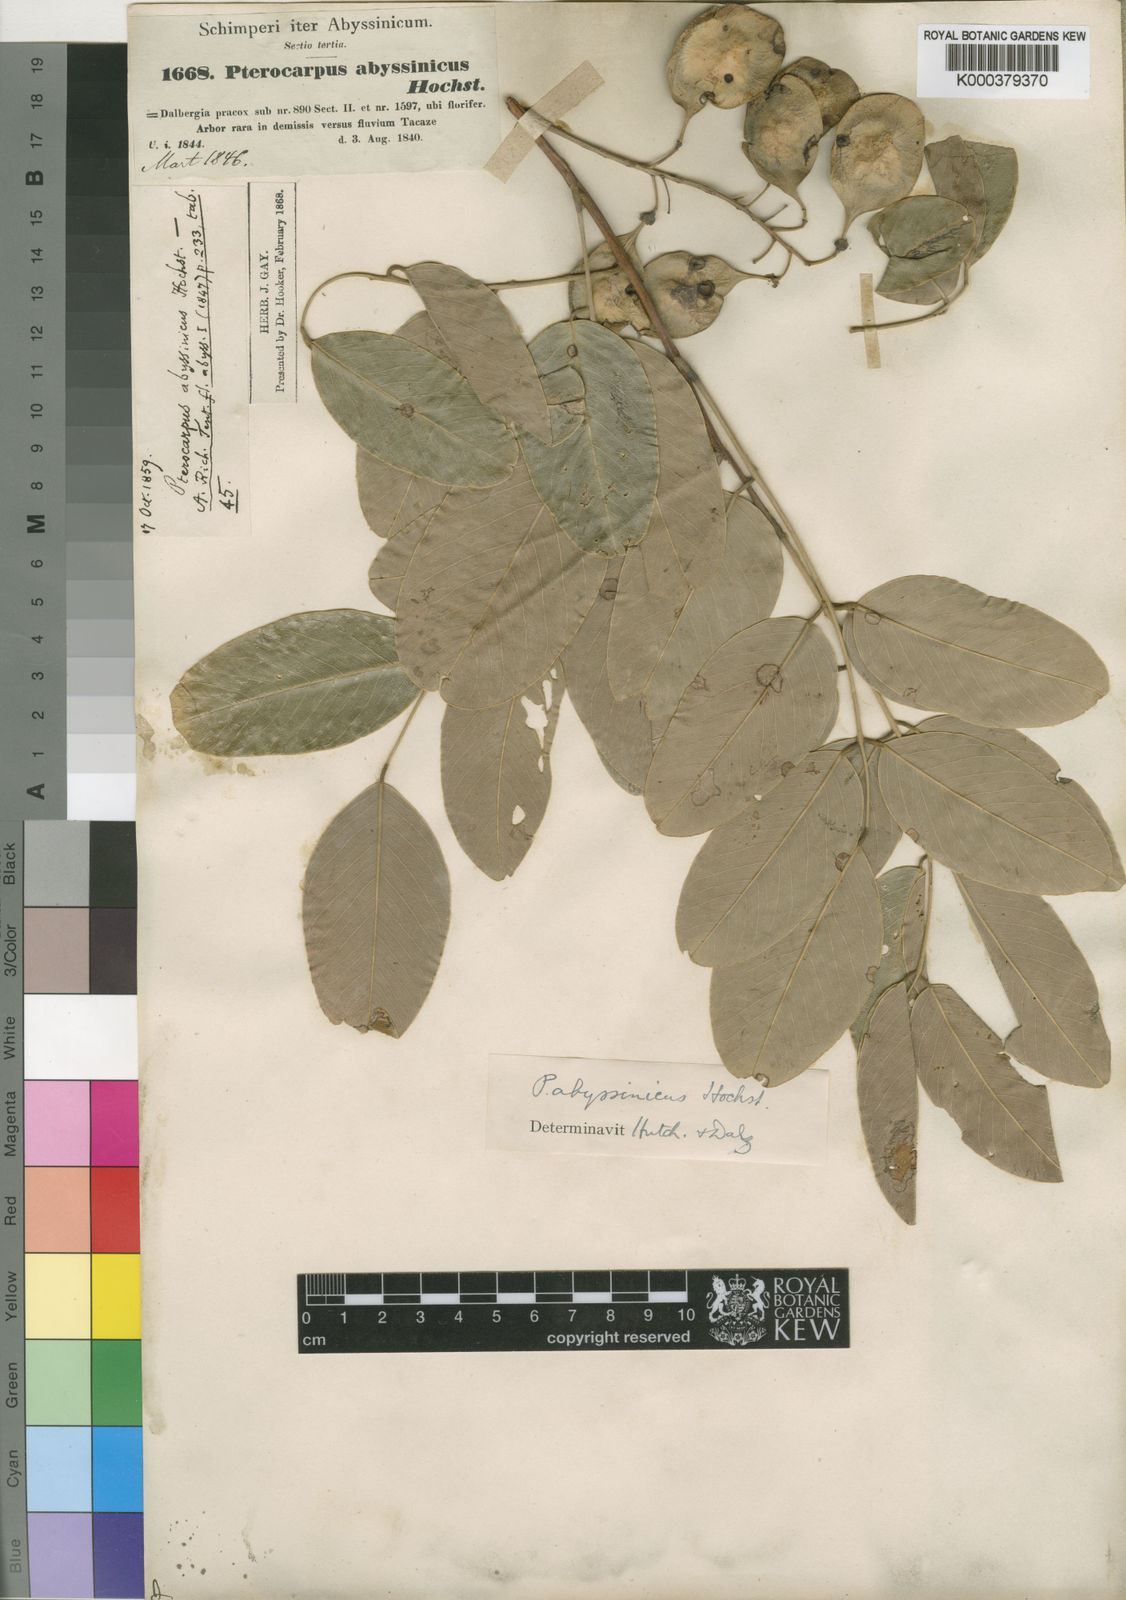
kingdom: Plantae
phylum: Tracheophyta
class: Magnoliopsida
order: Fabales
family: Fabaceae
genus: Pterocarpus
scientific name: Pterocarpus
